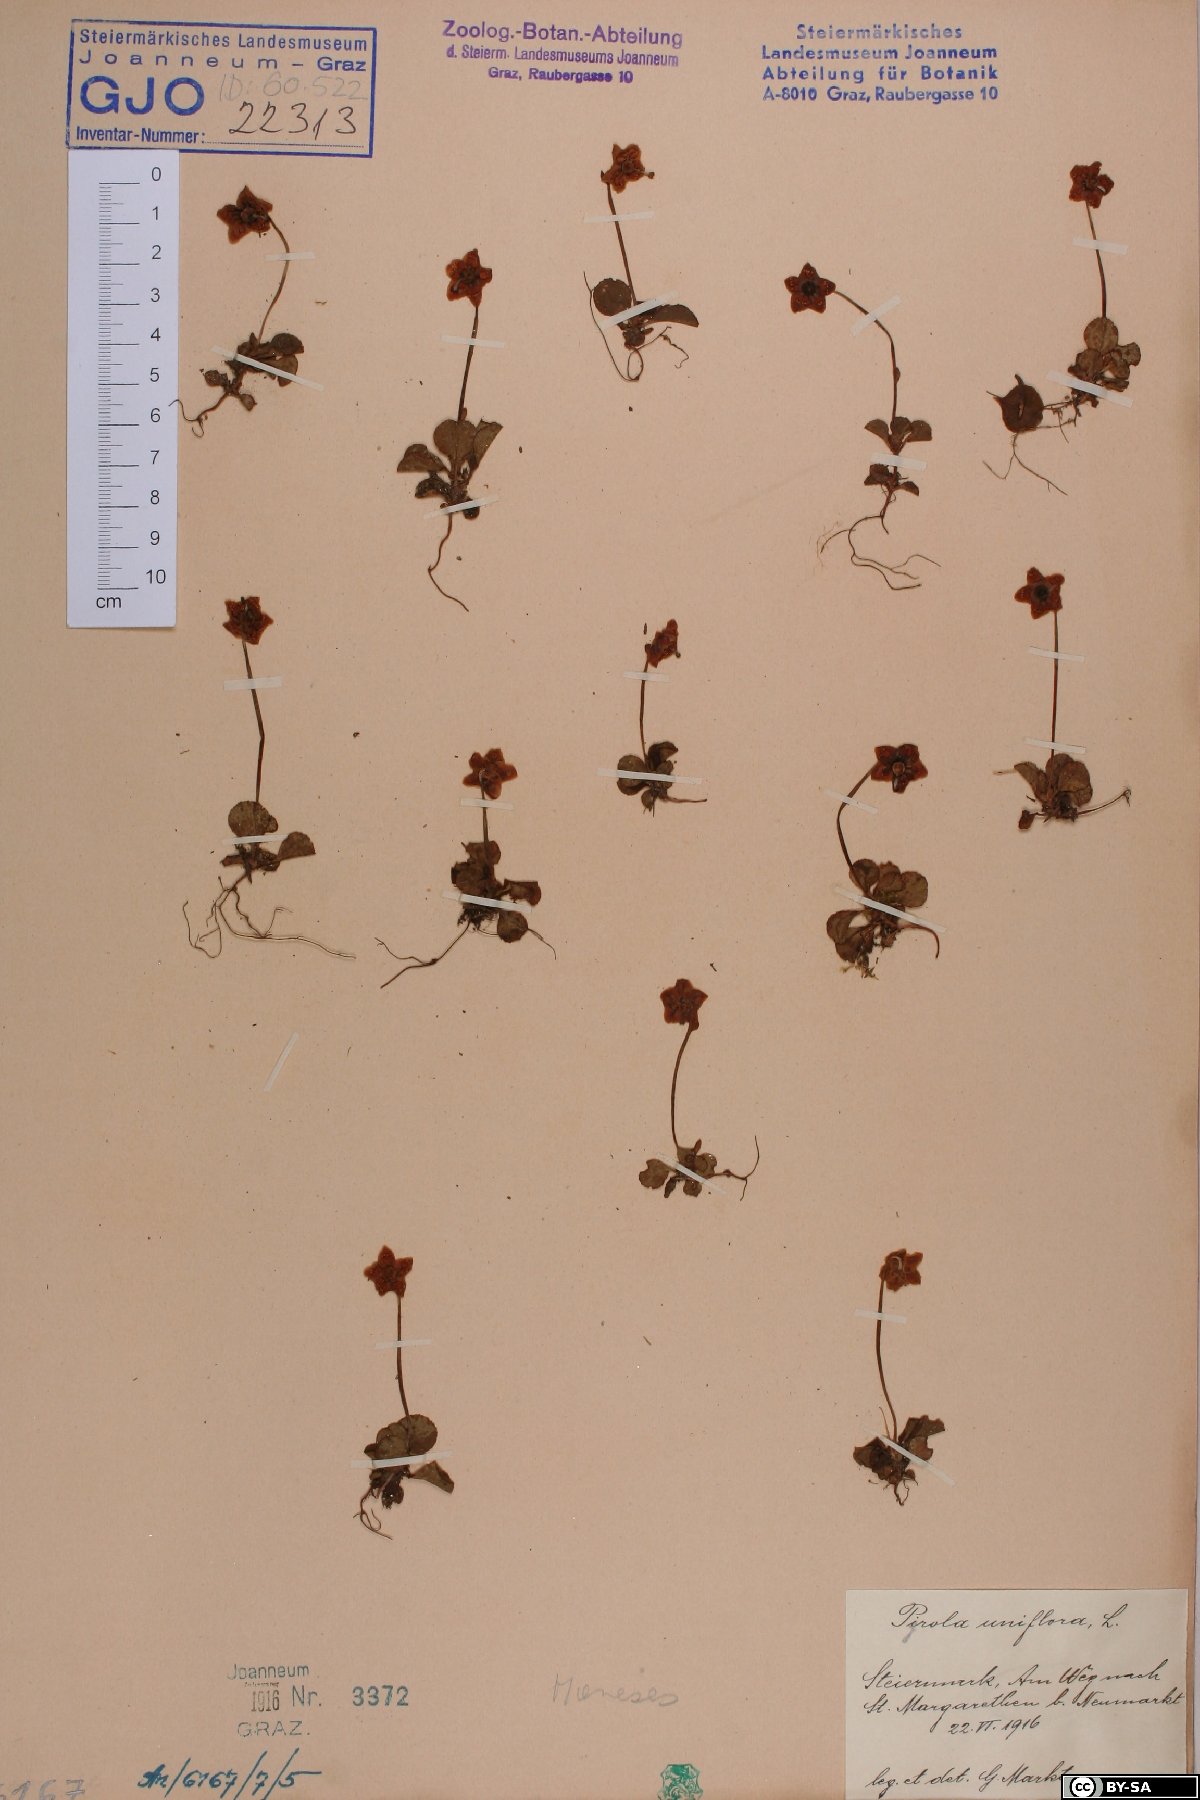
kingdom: Plantae
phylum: Tracheophyta
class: Magnoliopsida
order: Ericales
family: Ericaceae
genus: Moneses
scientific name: Moneses uniflora
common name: One-flowered wintergreen
